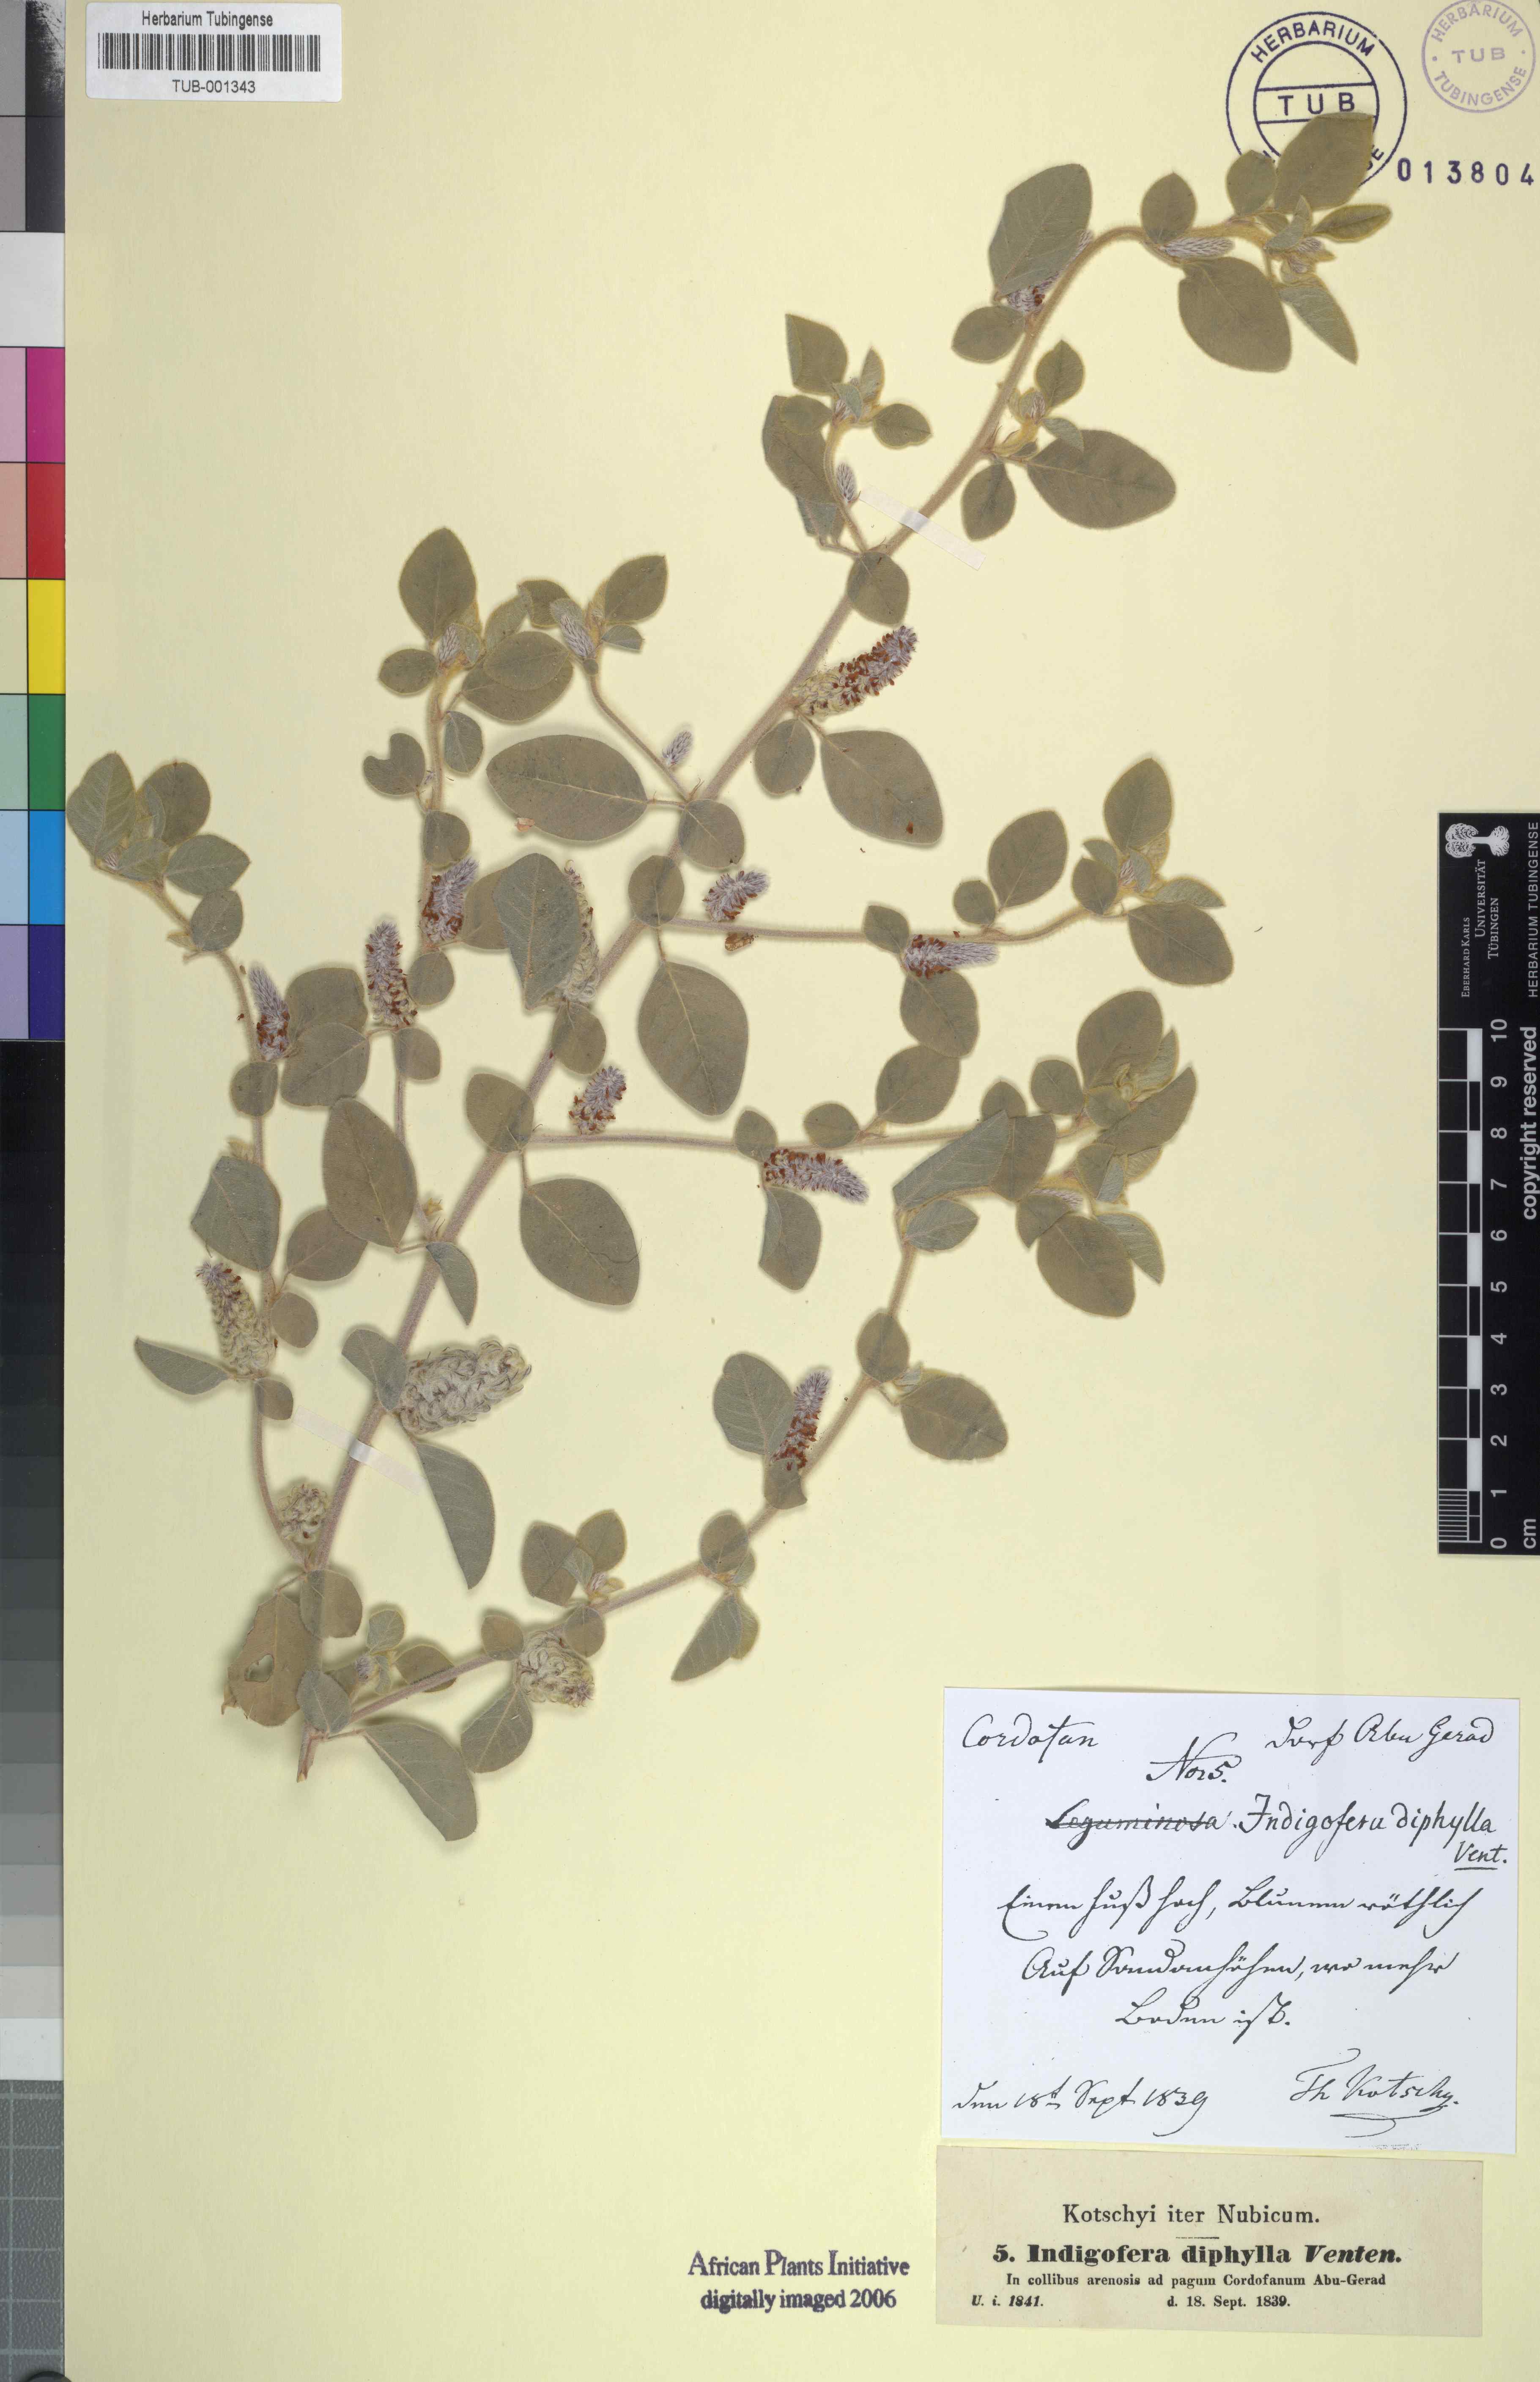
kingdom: Plantae
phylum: Tracheophyta
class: Magnoliopsida
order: Fabales
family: Fabaceae
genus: Indigofera
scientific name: Indigofera diphylla
